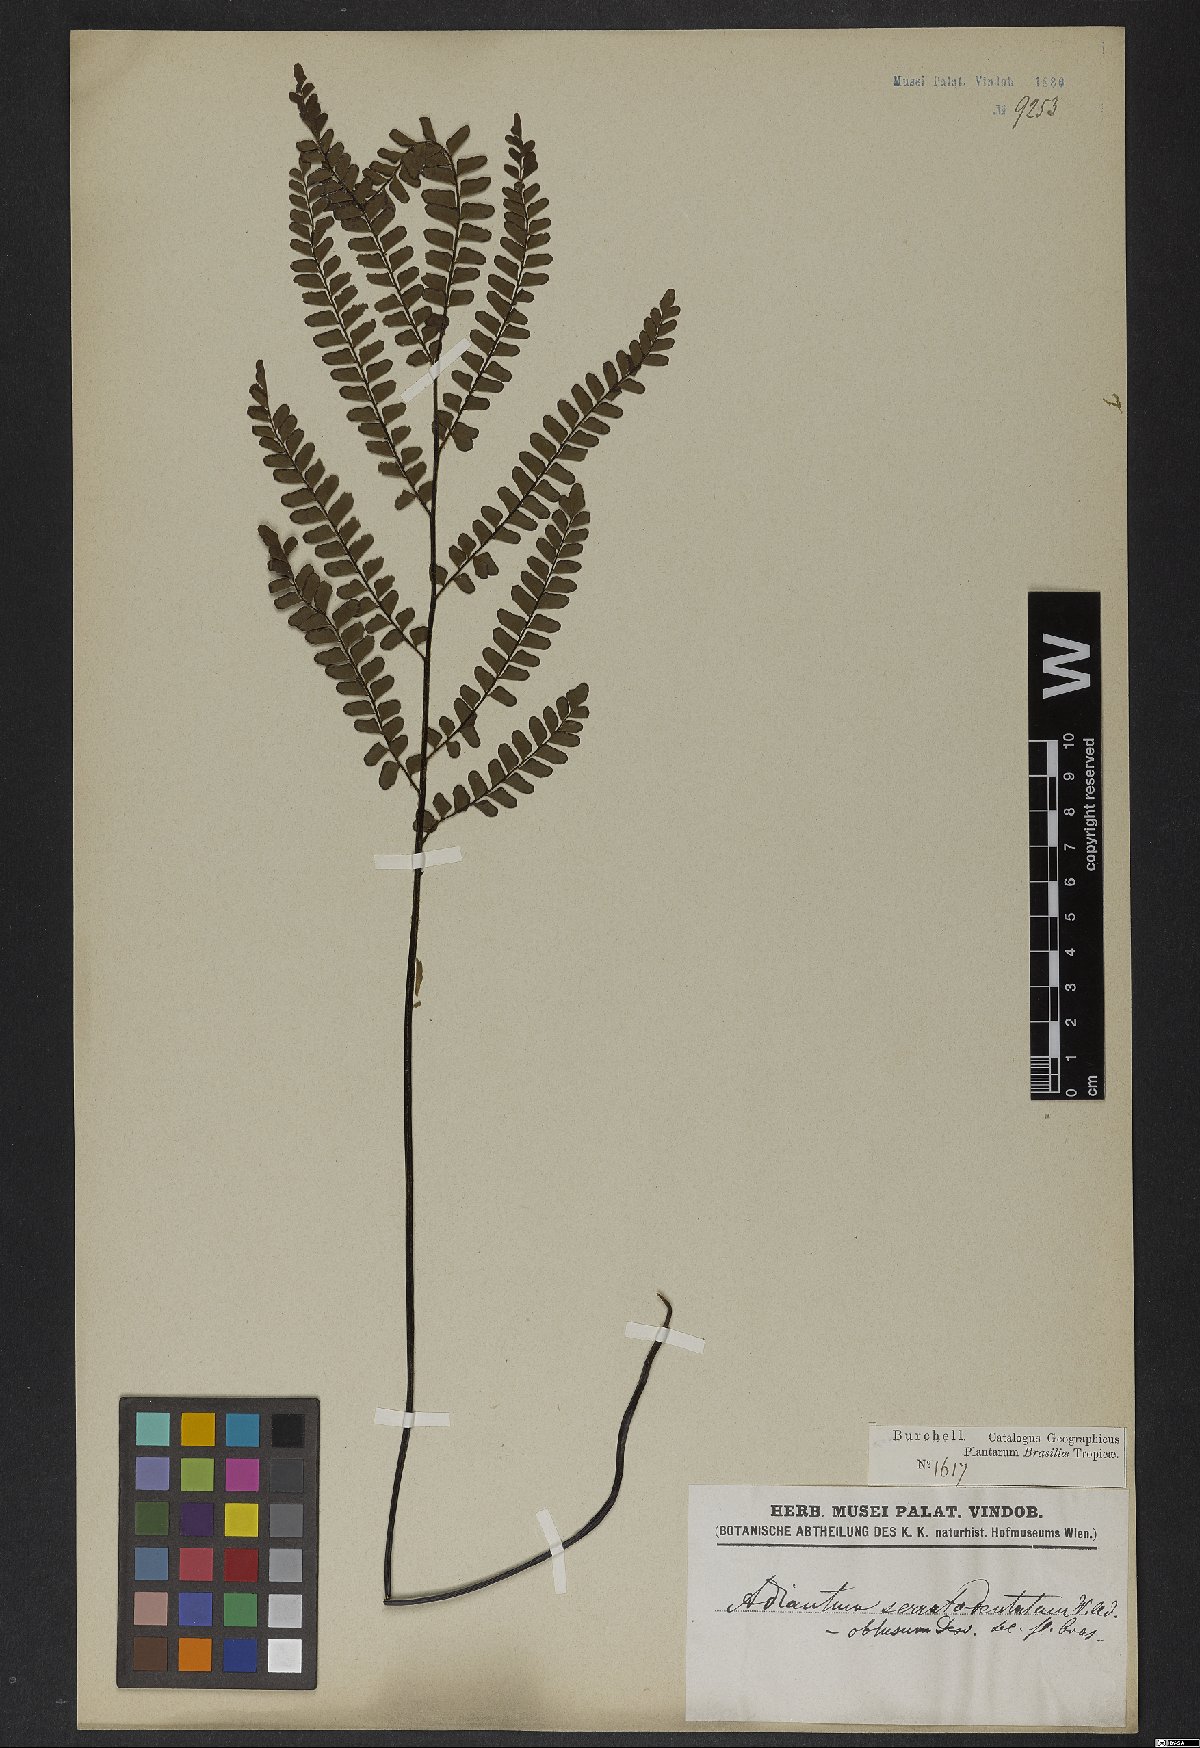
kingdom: Plantae
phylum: Tracheophyta
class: Polypodiopsida
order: Polypodiales
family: Pteridaceae
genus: Adiantum
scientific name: Adiantum serratodentatum
